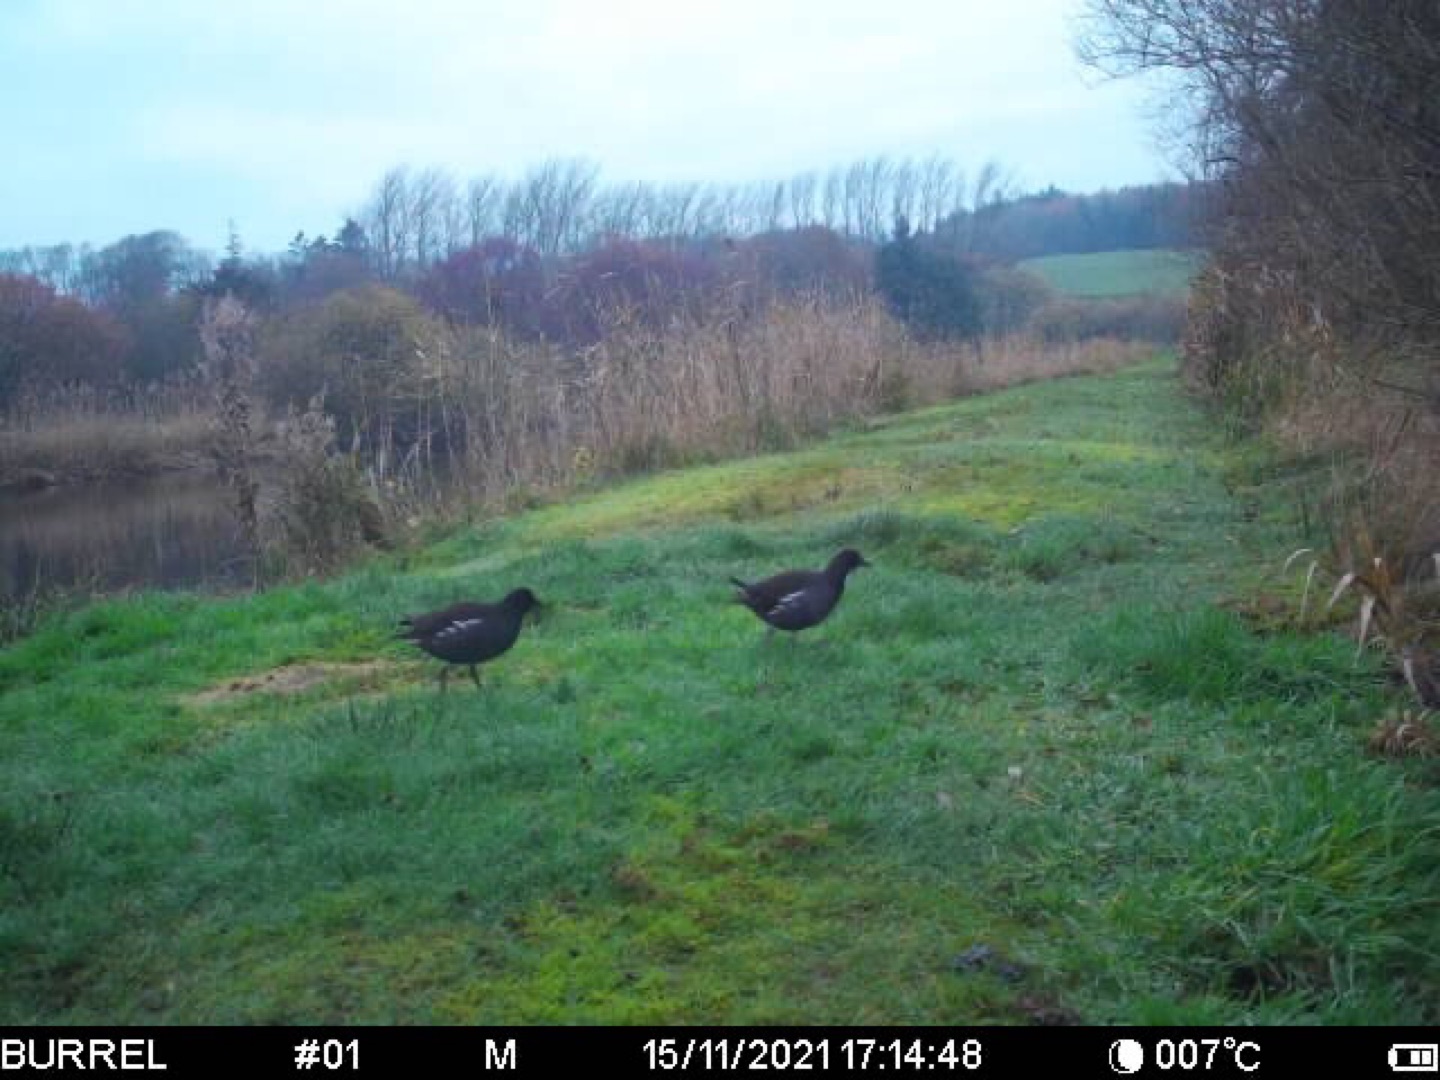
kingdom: Animalia
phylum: Chordata
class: Aves
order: Gruiformes
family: Rallidae
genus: Gallinula
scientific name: Gallinula chloropus
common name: Grønbenet rørhøne
